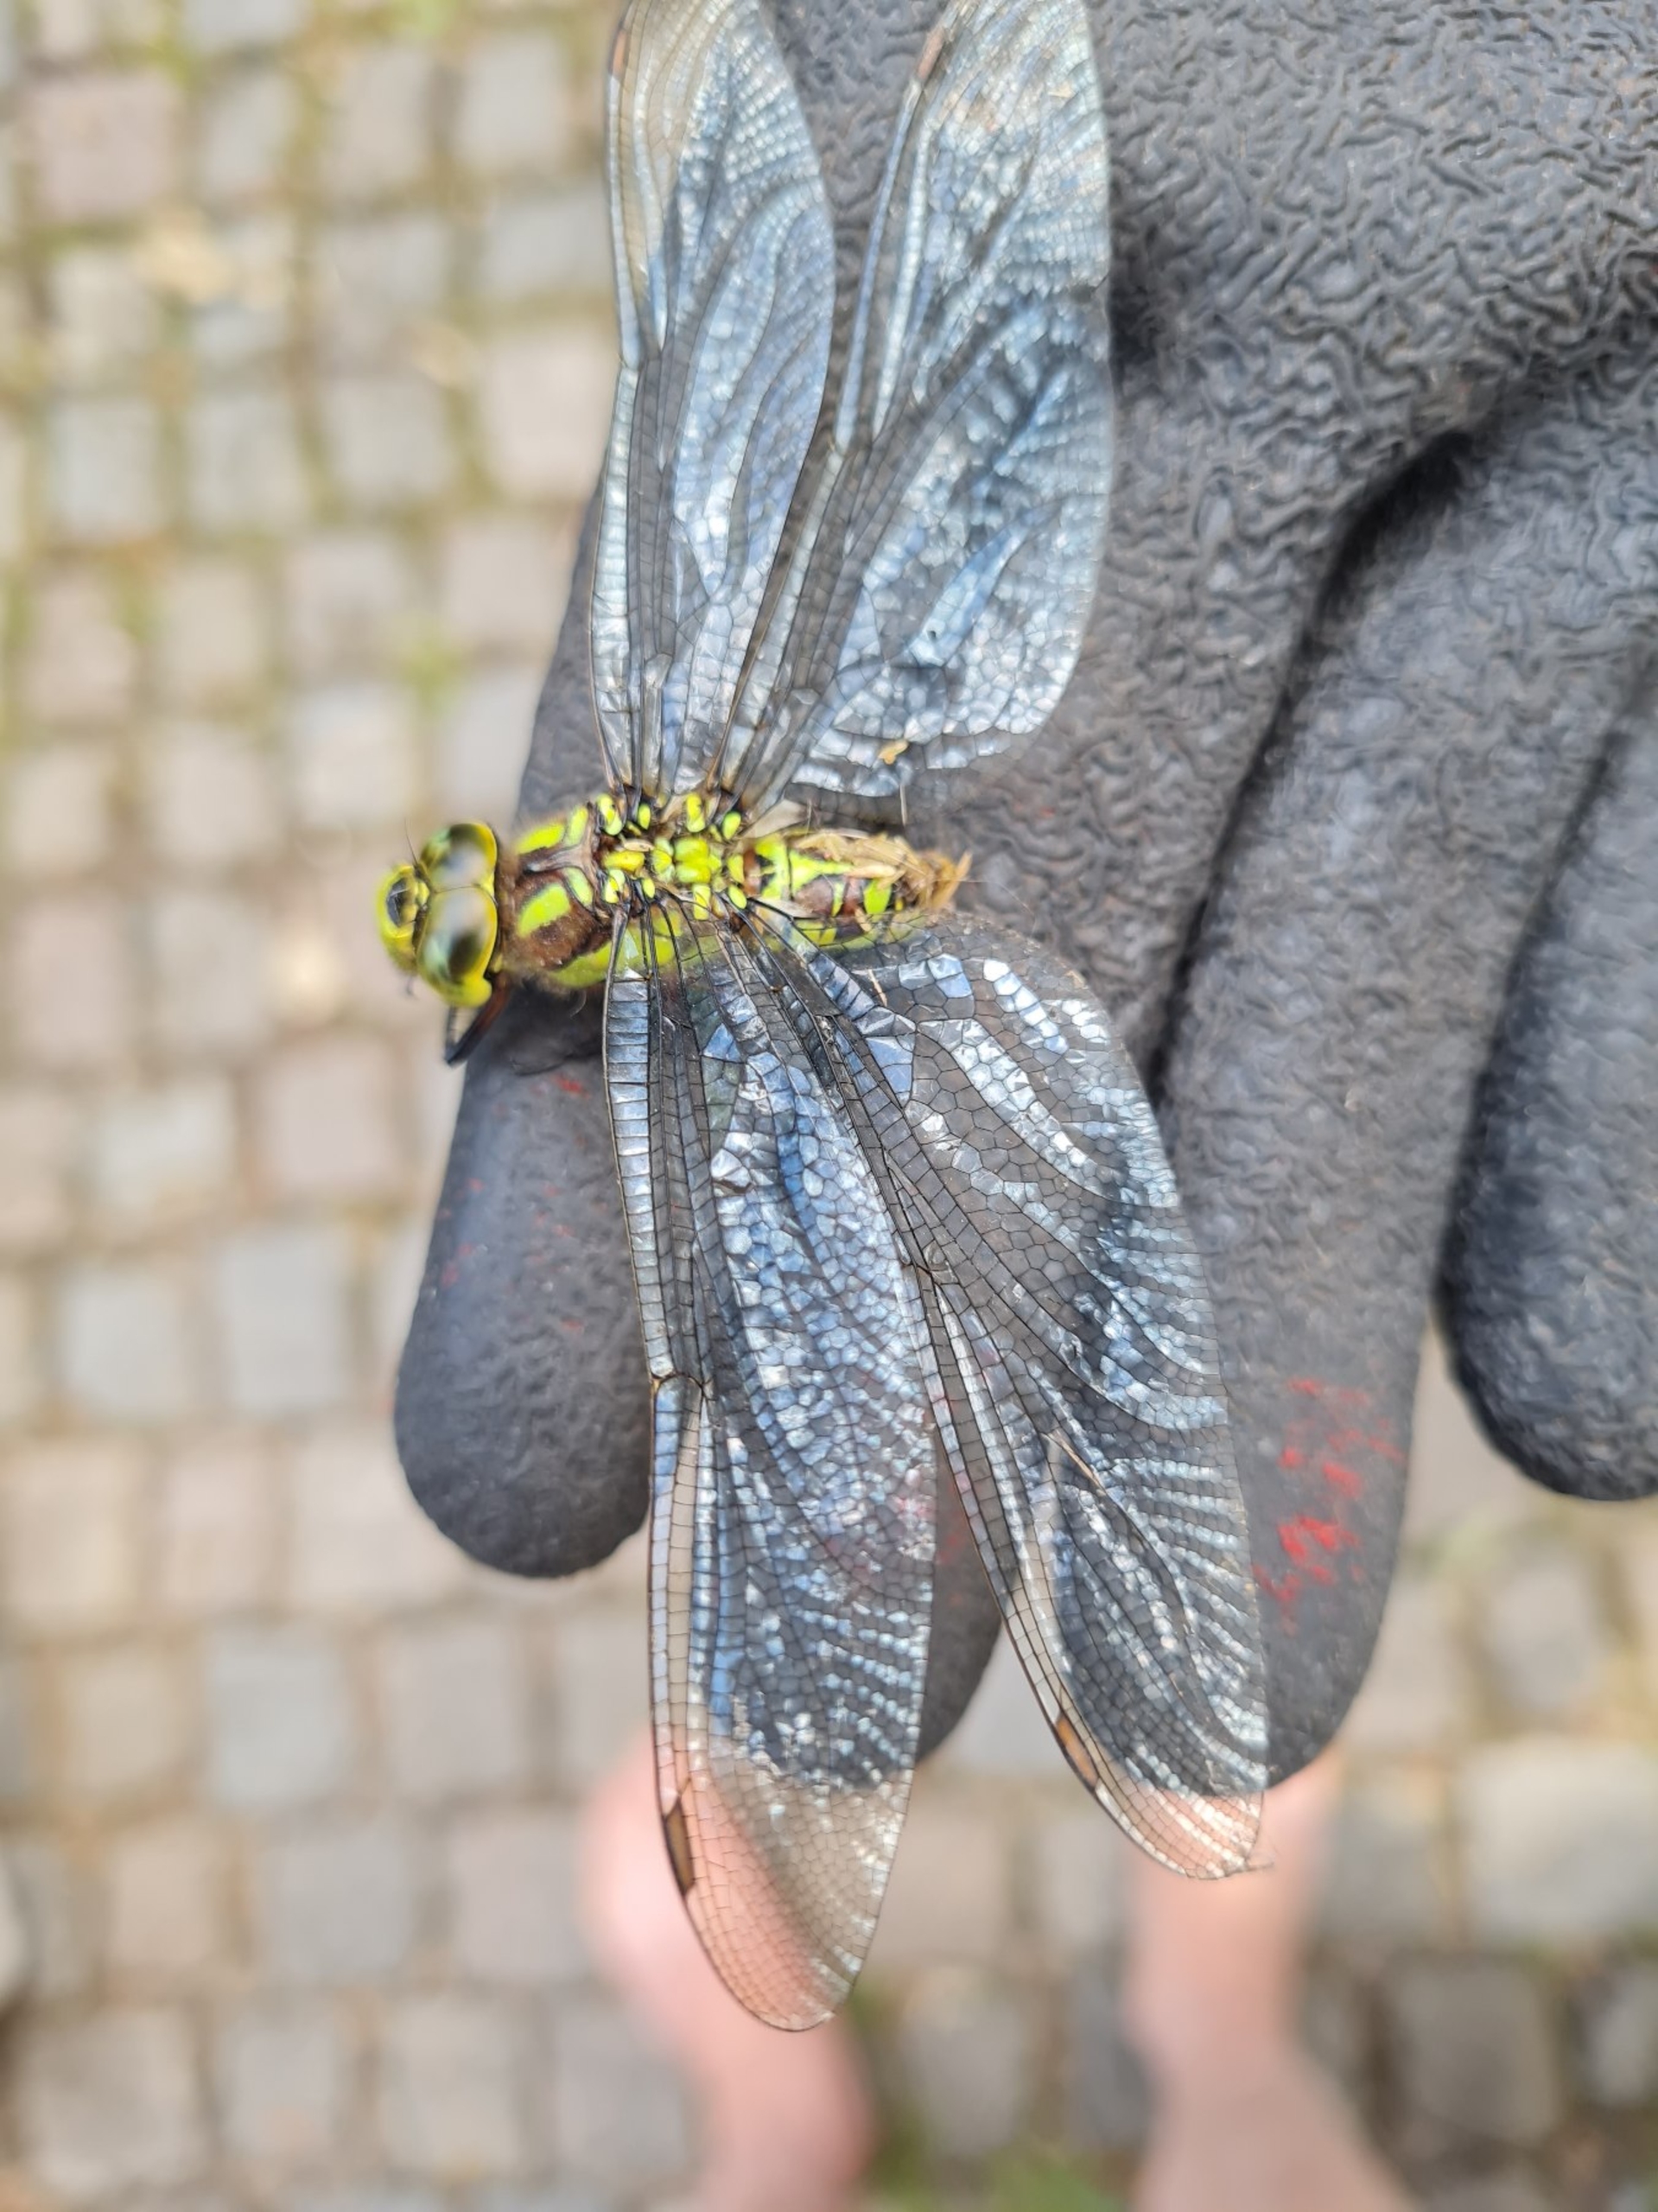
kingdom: Animalia
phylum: Arthropoda
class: Insecta
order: Odonata
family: Aeshnidae
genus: Aeshna
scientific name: Aeshna cyanea
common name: Blå mosaikguldsmed
